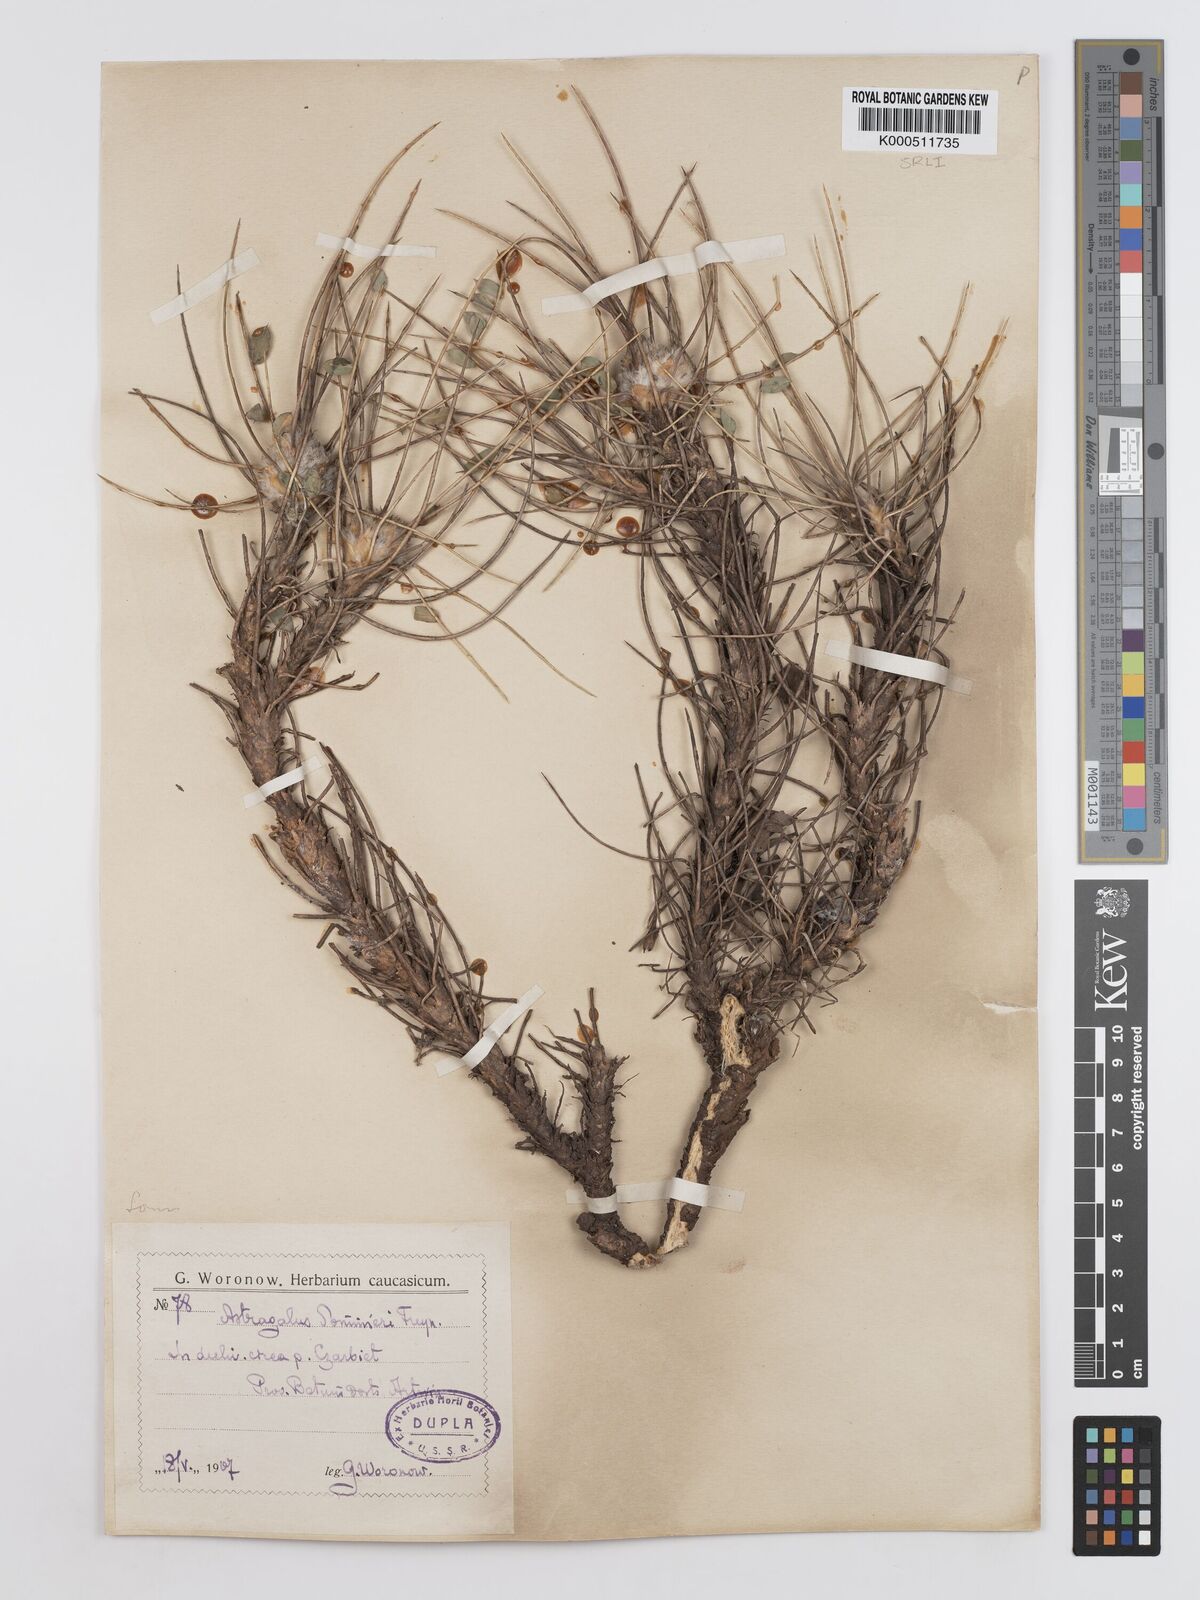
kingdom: Plantae
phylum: Tracheophyta
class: Magnoliopsida
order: Fabales
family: Fabaceae
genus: Astragalus
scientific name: Astragalus cephalotes
